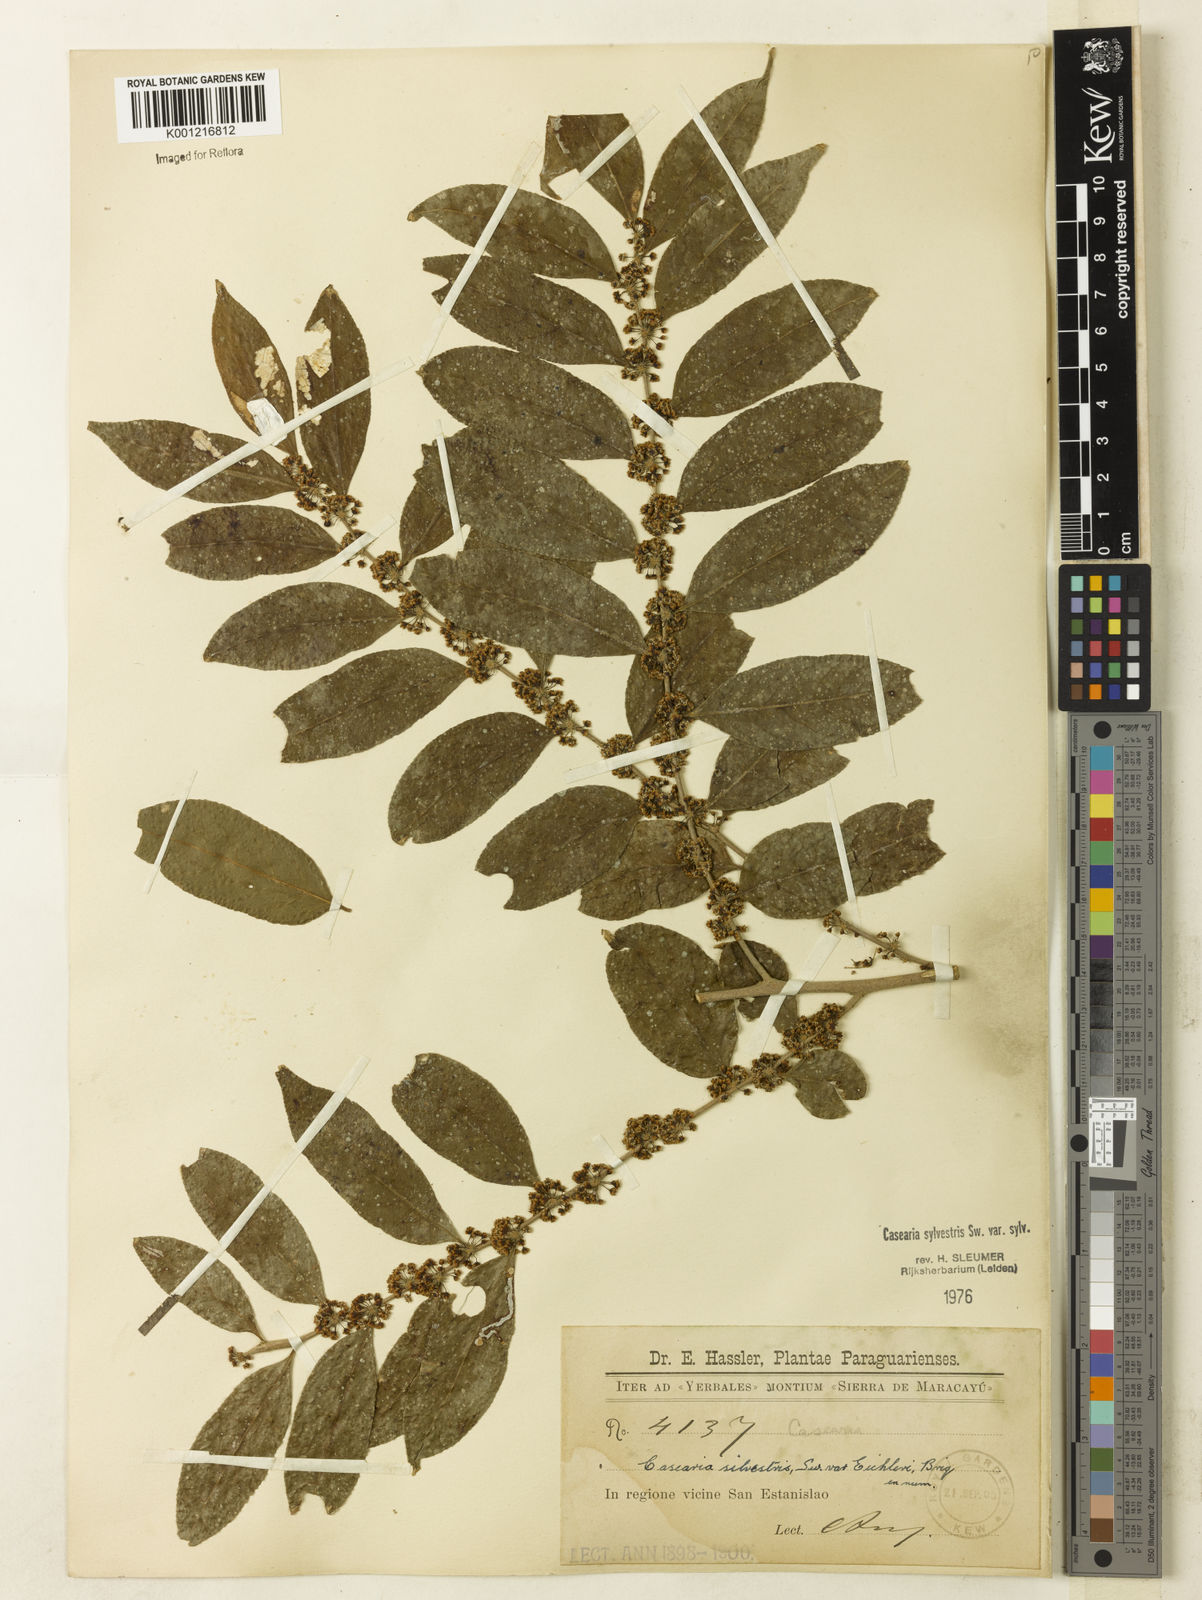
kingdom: Plantae
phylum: Tracheophyta
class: Magnoliopsida
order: Malpighiales
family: Salicaceae
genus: Casearia
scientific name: Casearia sylvestris
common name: Wild sage
